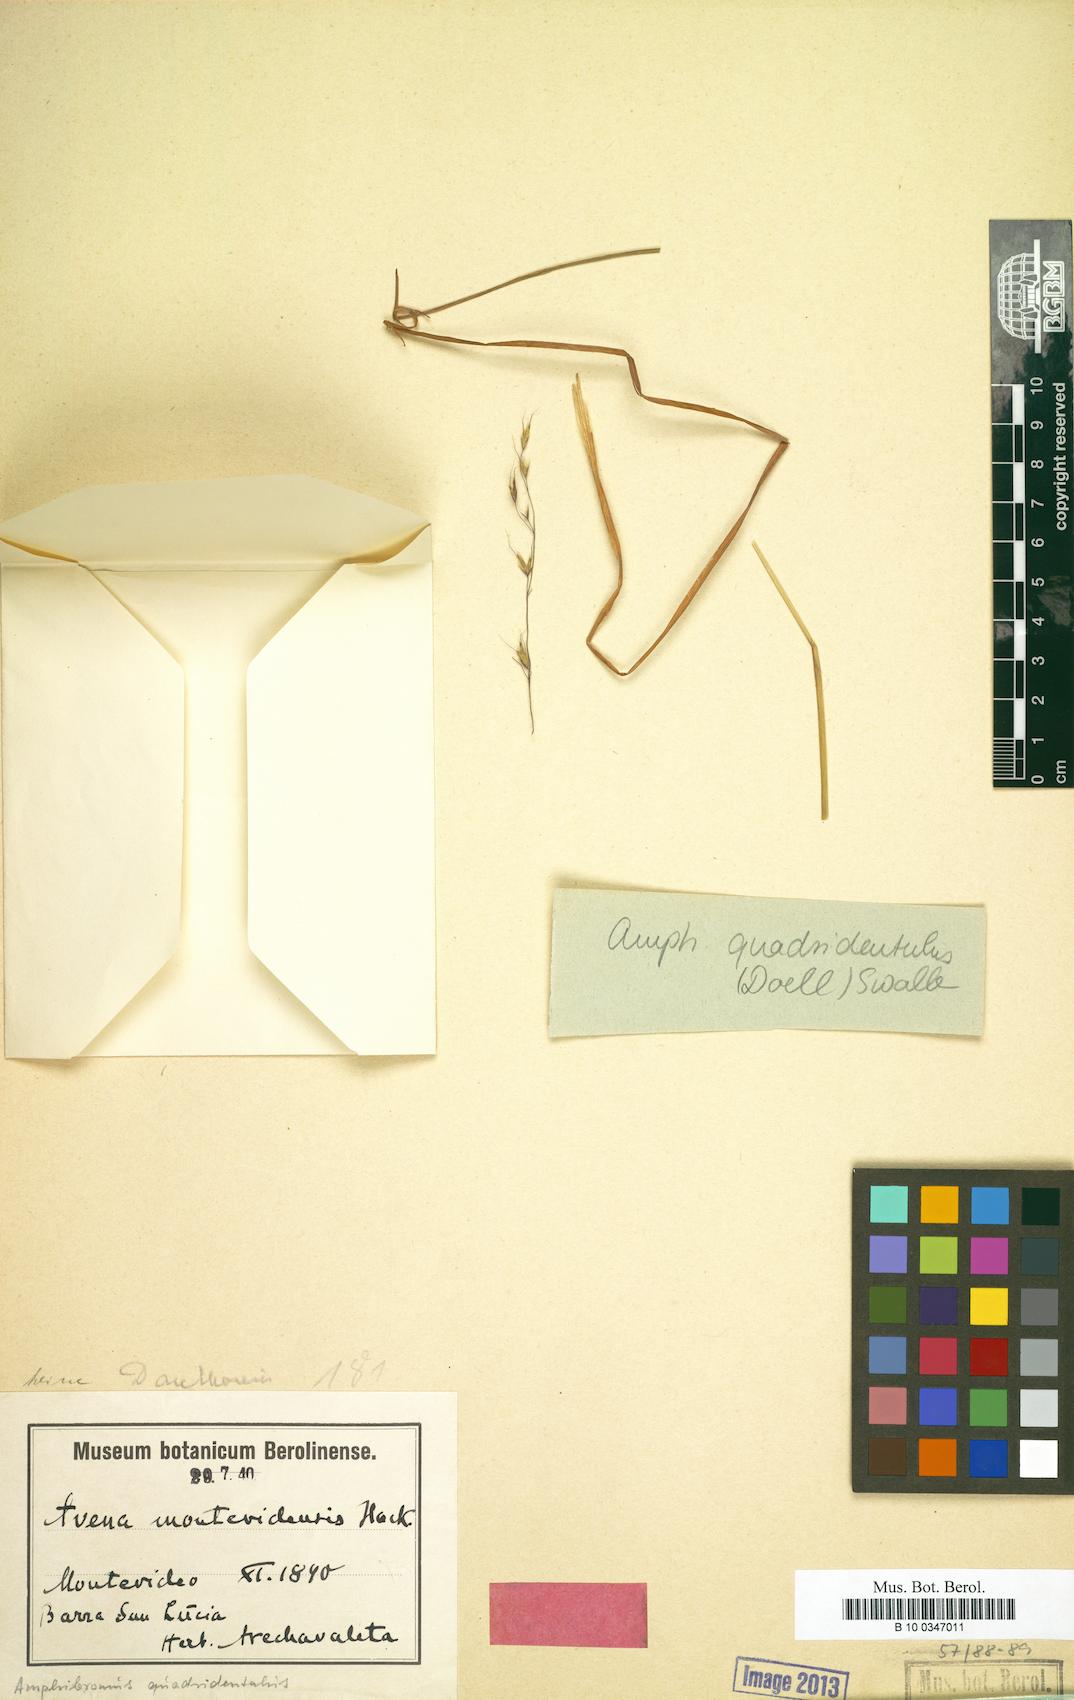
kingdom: Plantae
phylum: Tracheophyta
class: Liliopsida
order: Poales
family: Poaceae
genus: Amphibromus
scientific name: Amphibromus quadridentulus
